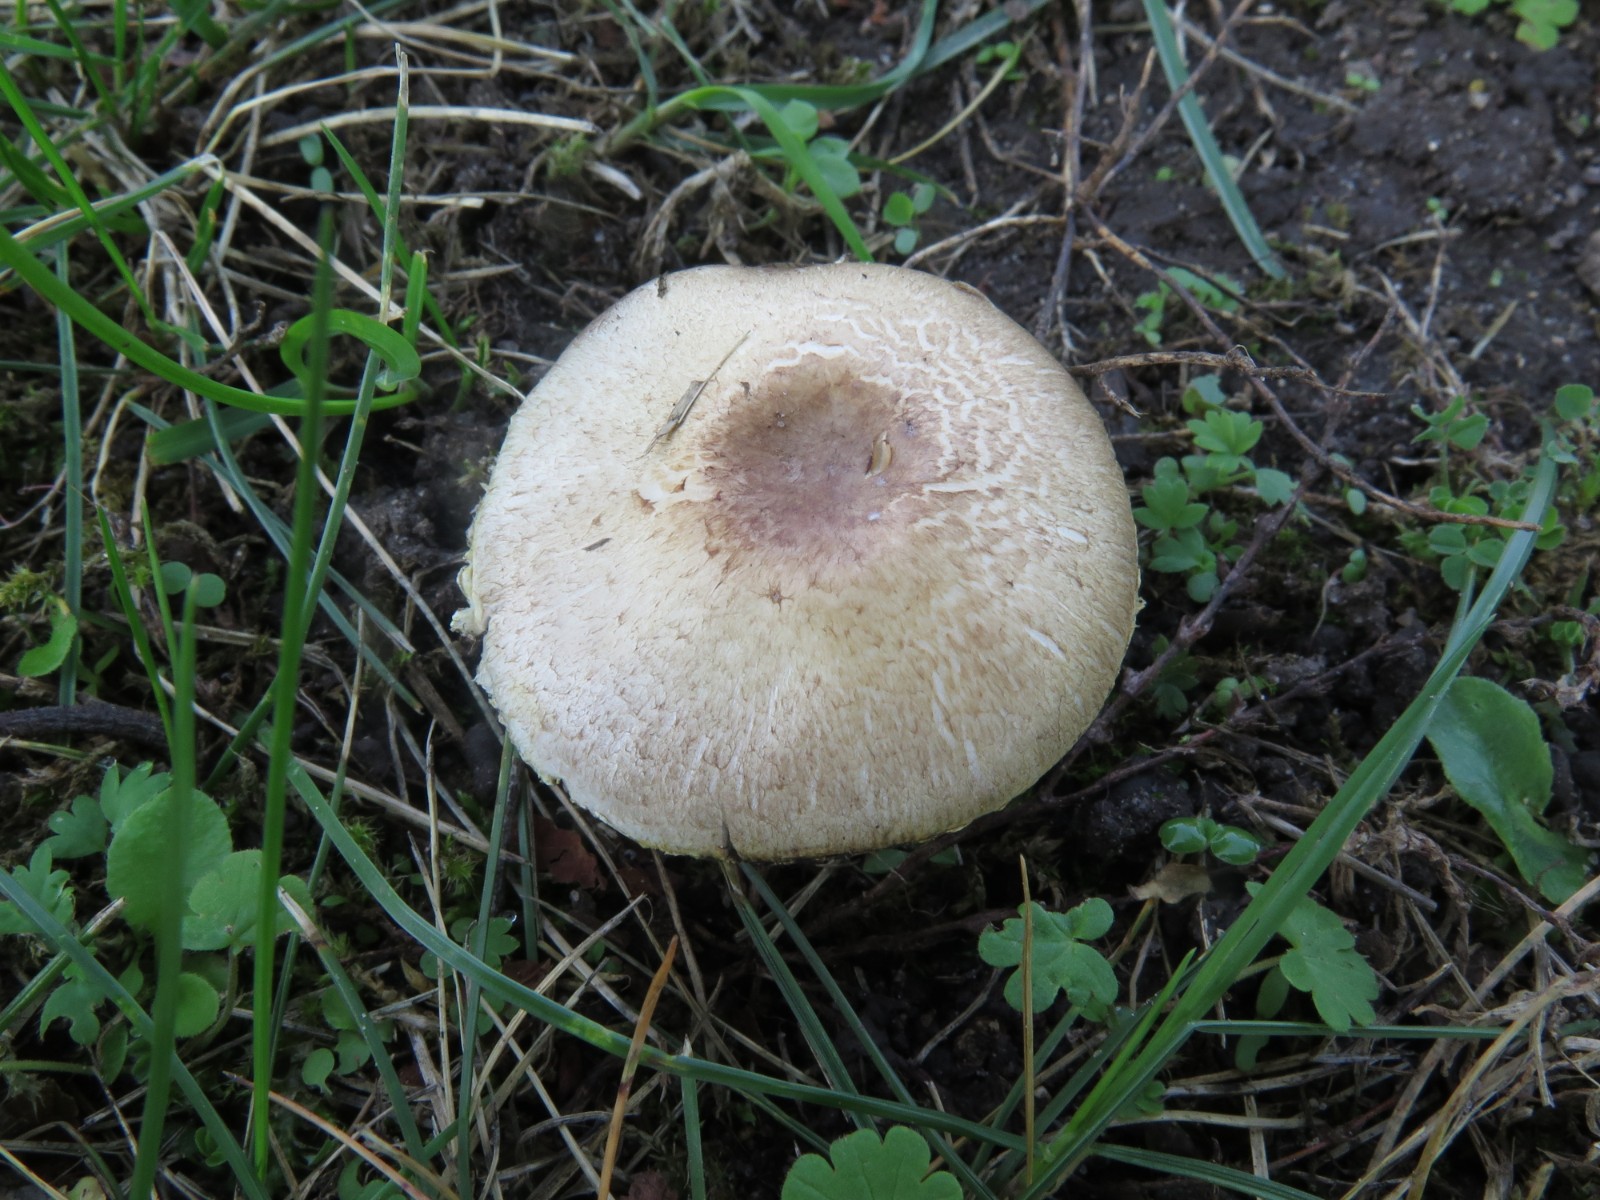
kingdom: Fungi
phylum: Basidiomycota
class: Agaricomycetes
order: Agaricales
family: Agaricaceae
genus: Agaricus
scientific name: Agaricus dulcidulus
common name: blegrød champignon
